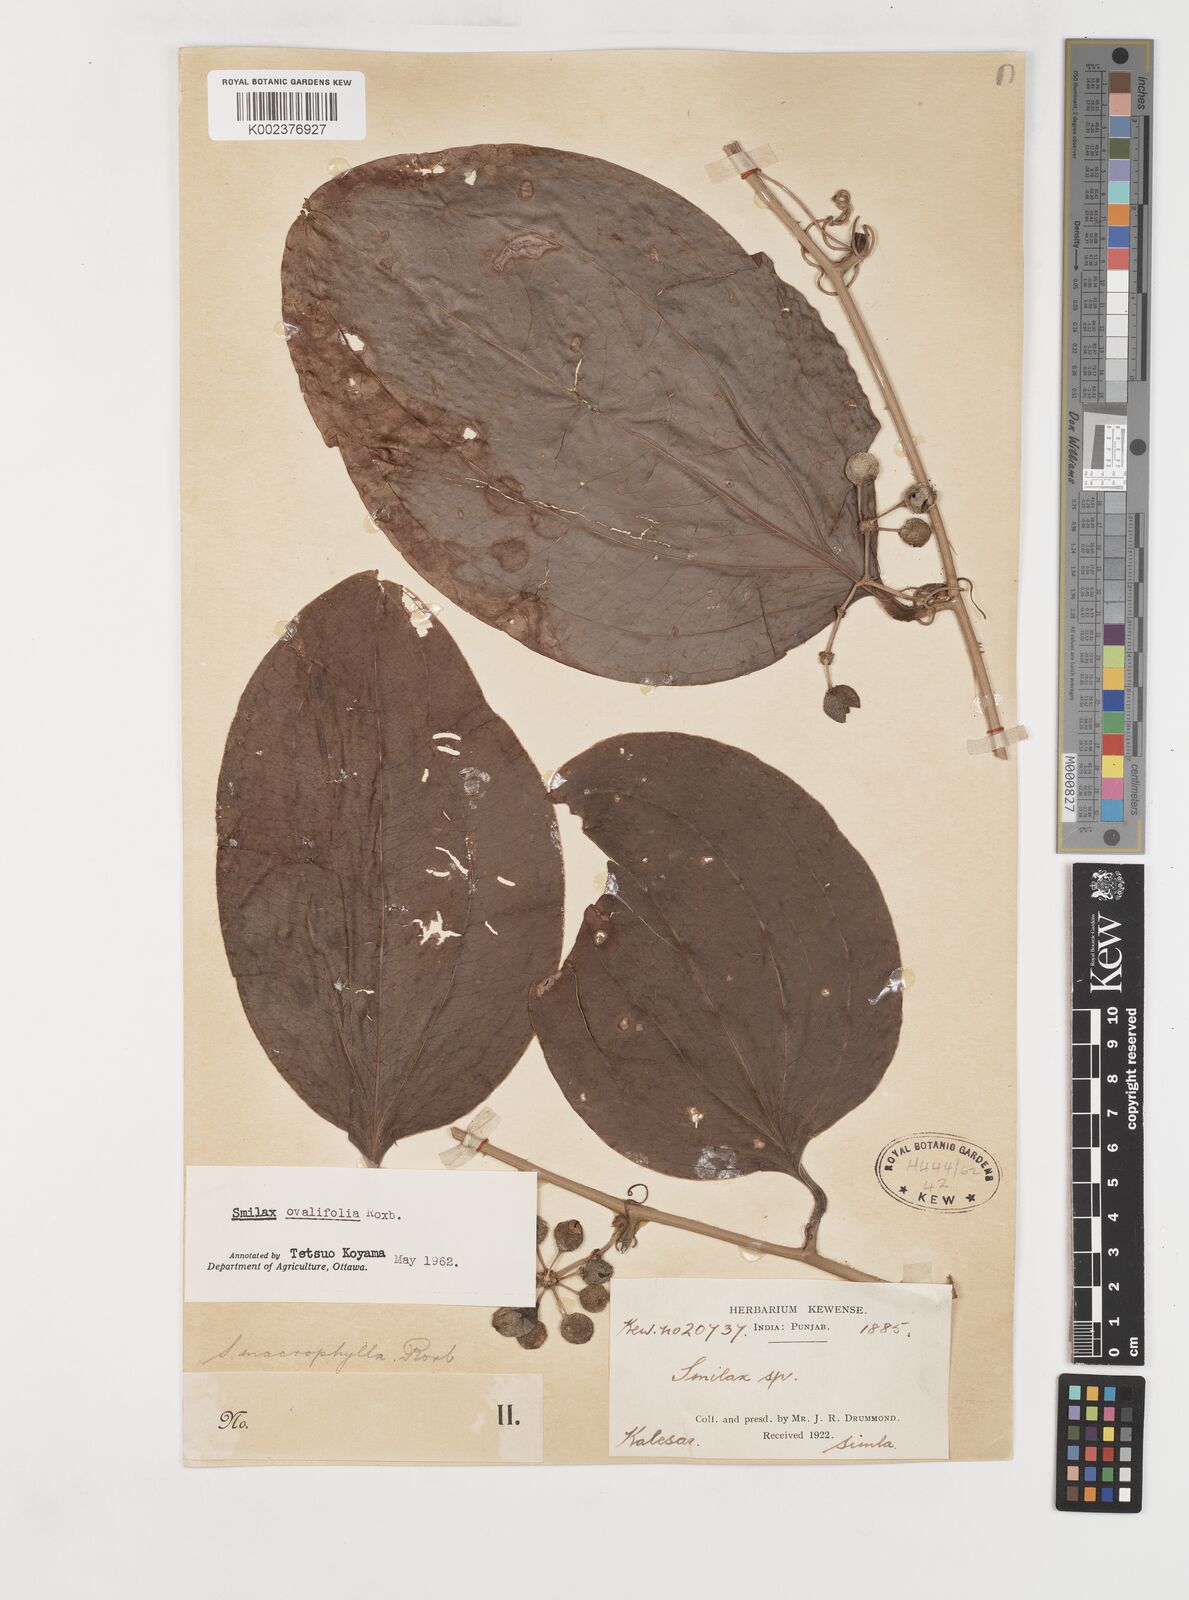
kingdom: Plantae
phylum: Tracheophyta
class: Liliopsida
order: Liliales
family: Smilacaceae
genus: Smilax
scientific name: Smilax ovalifolia
